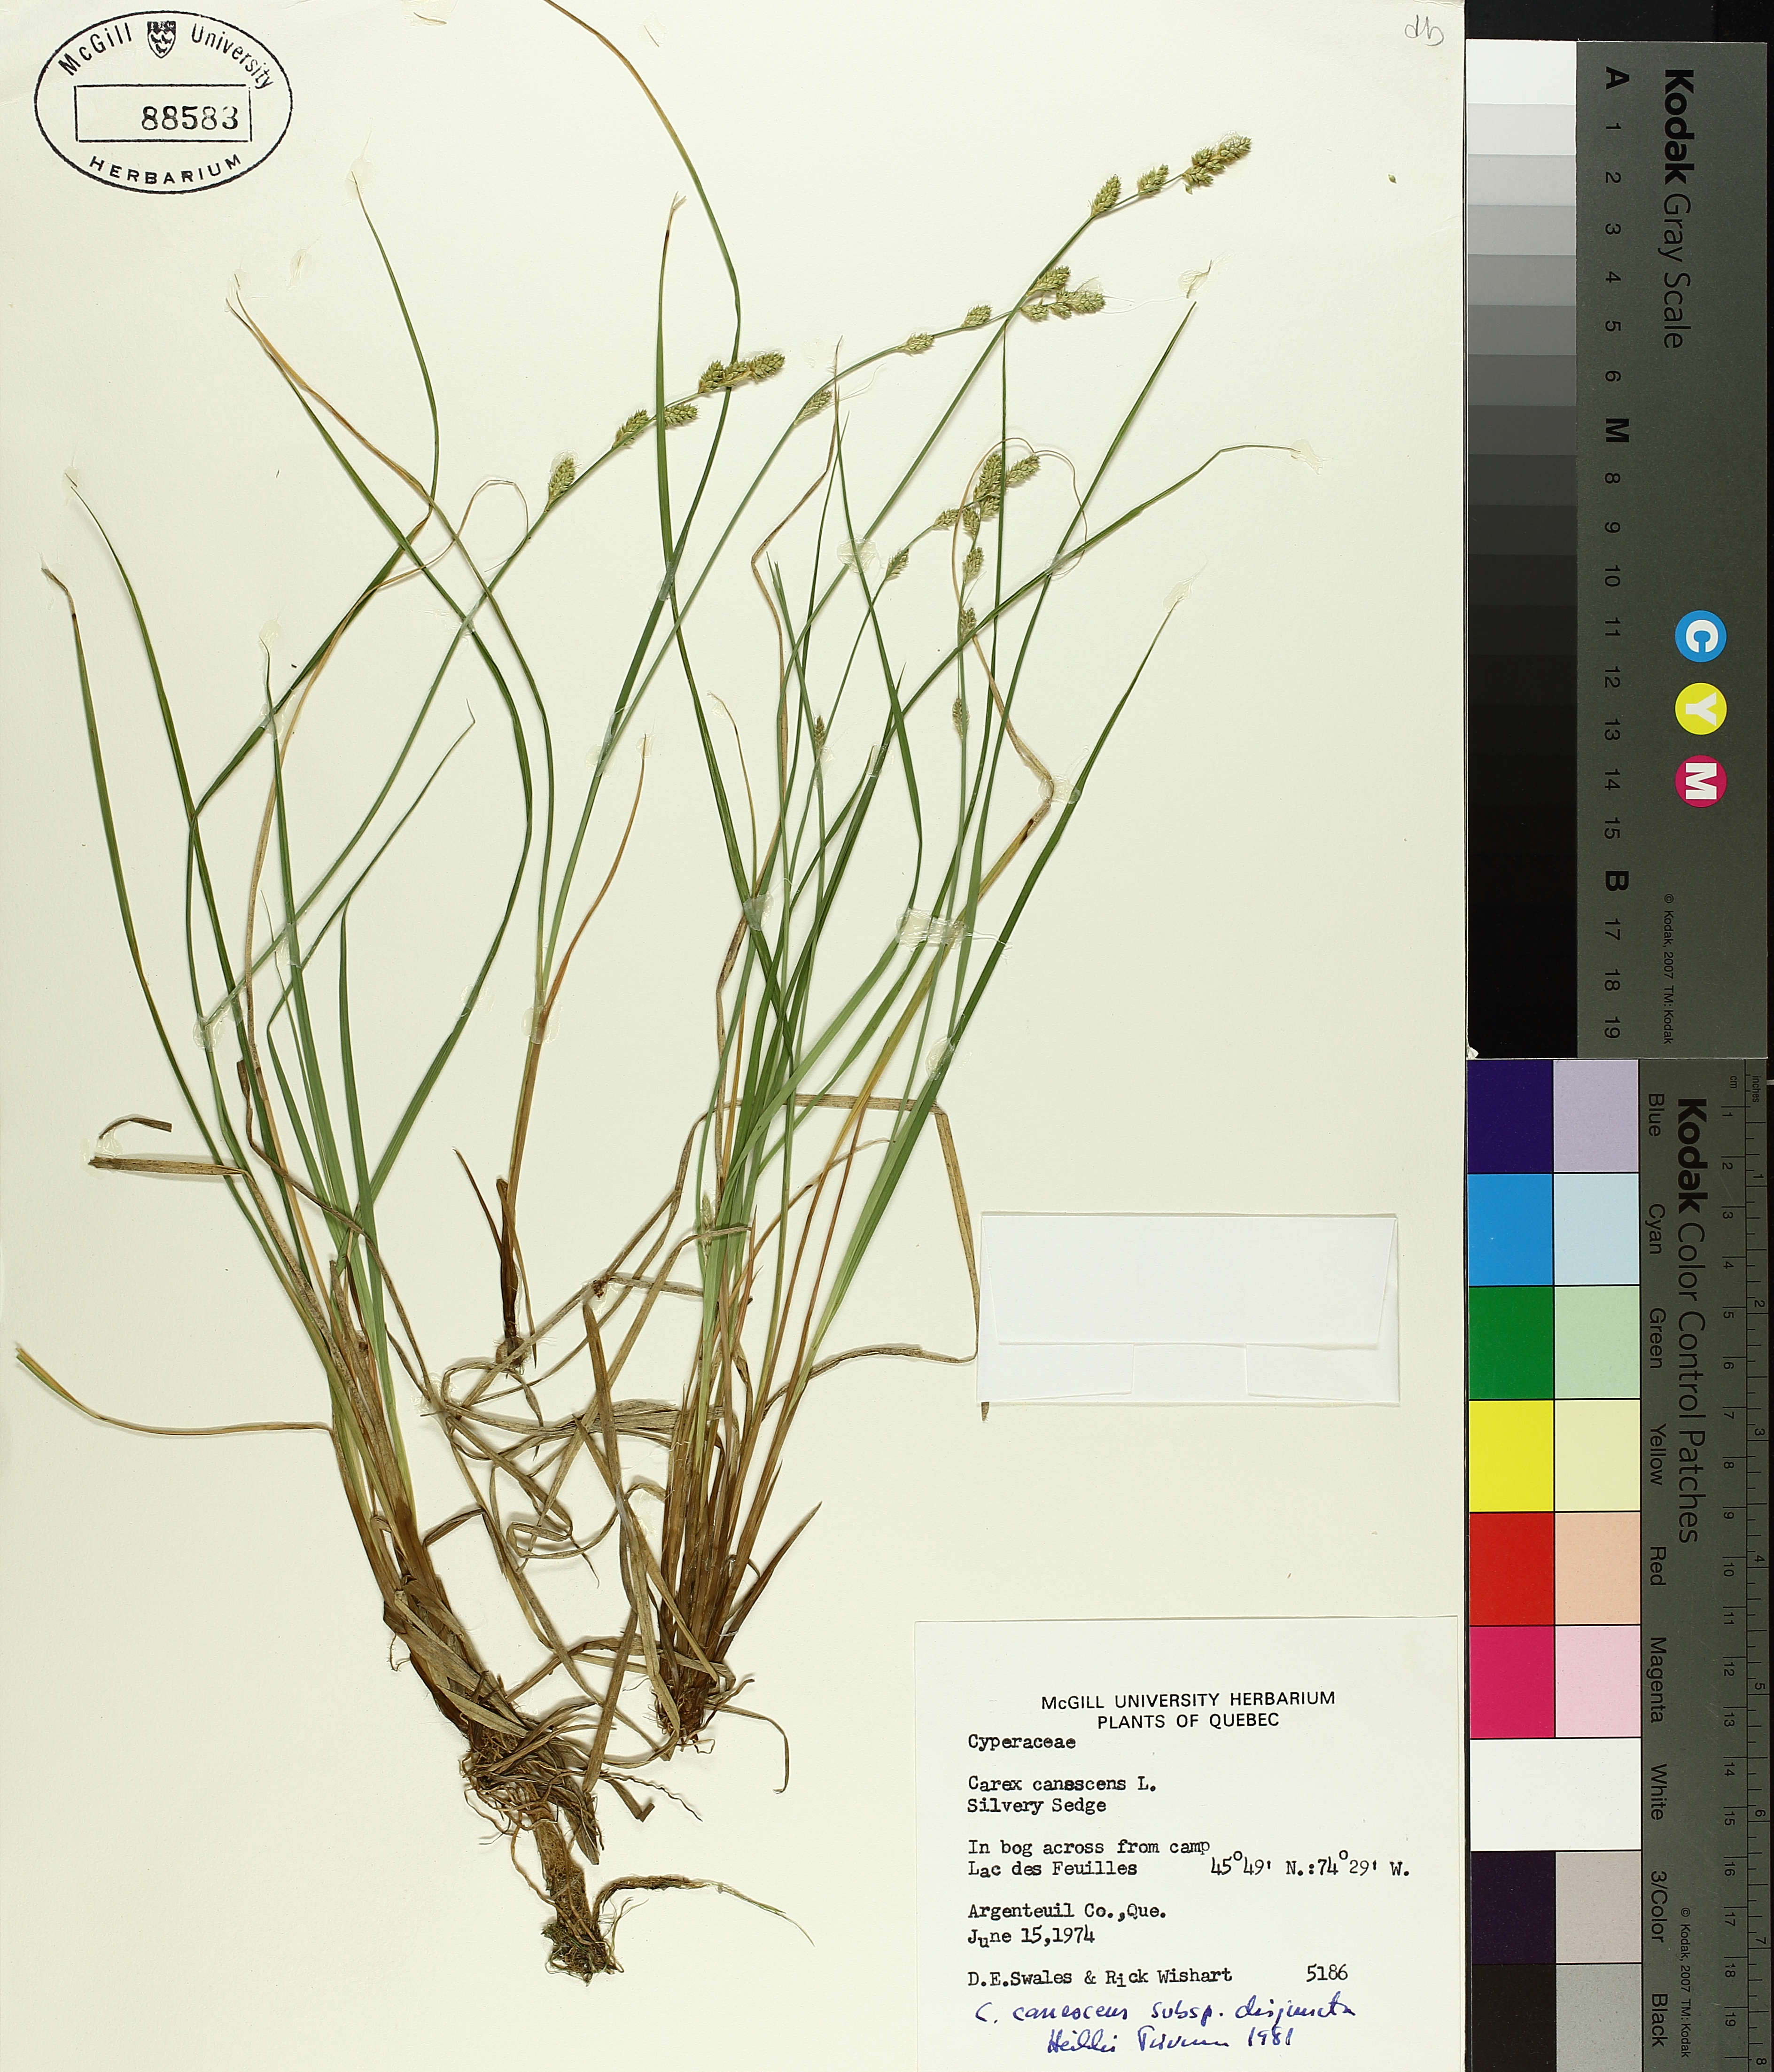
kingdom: Plantae
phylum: Tracheophyta
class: Liliopsida
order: Poales
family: Cyperaceae
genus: Carex
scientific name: Carex canescens
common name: White sedge
